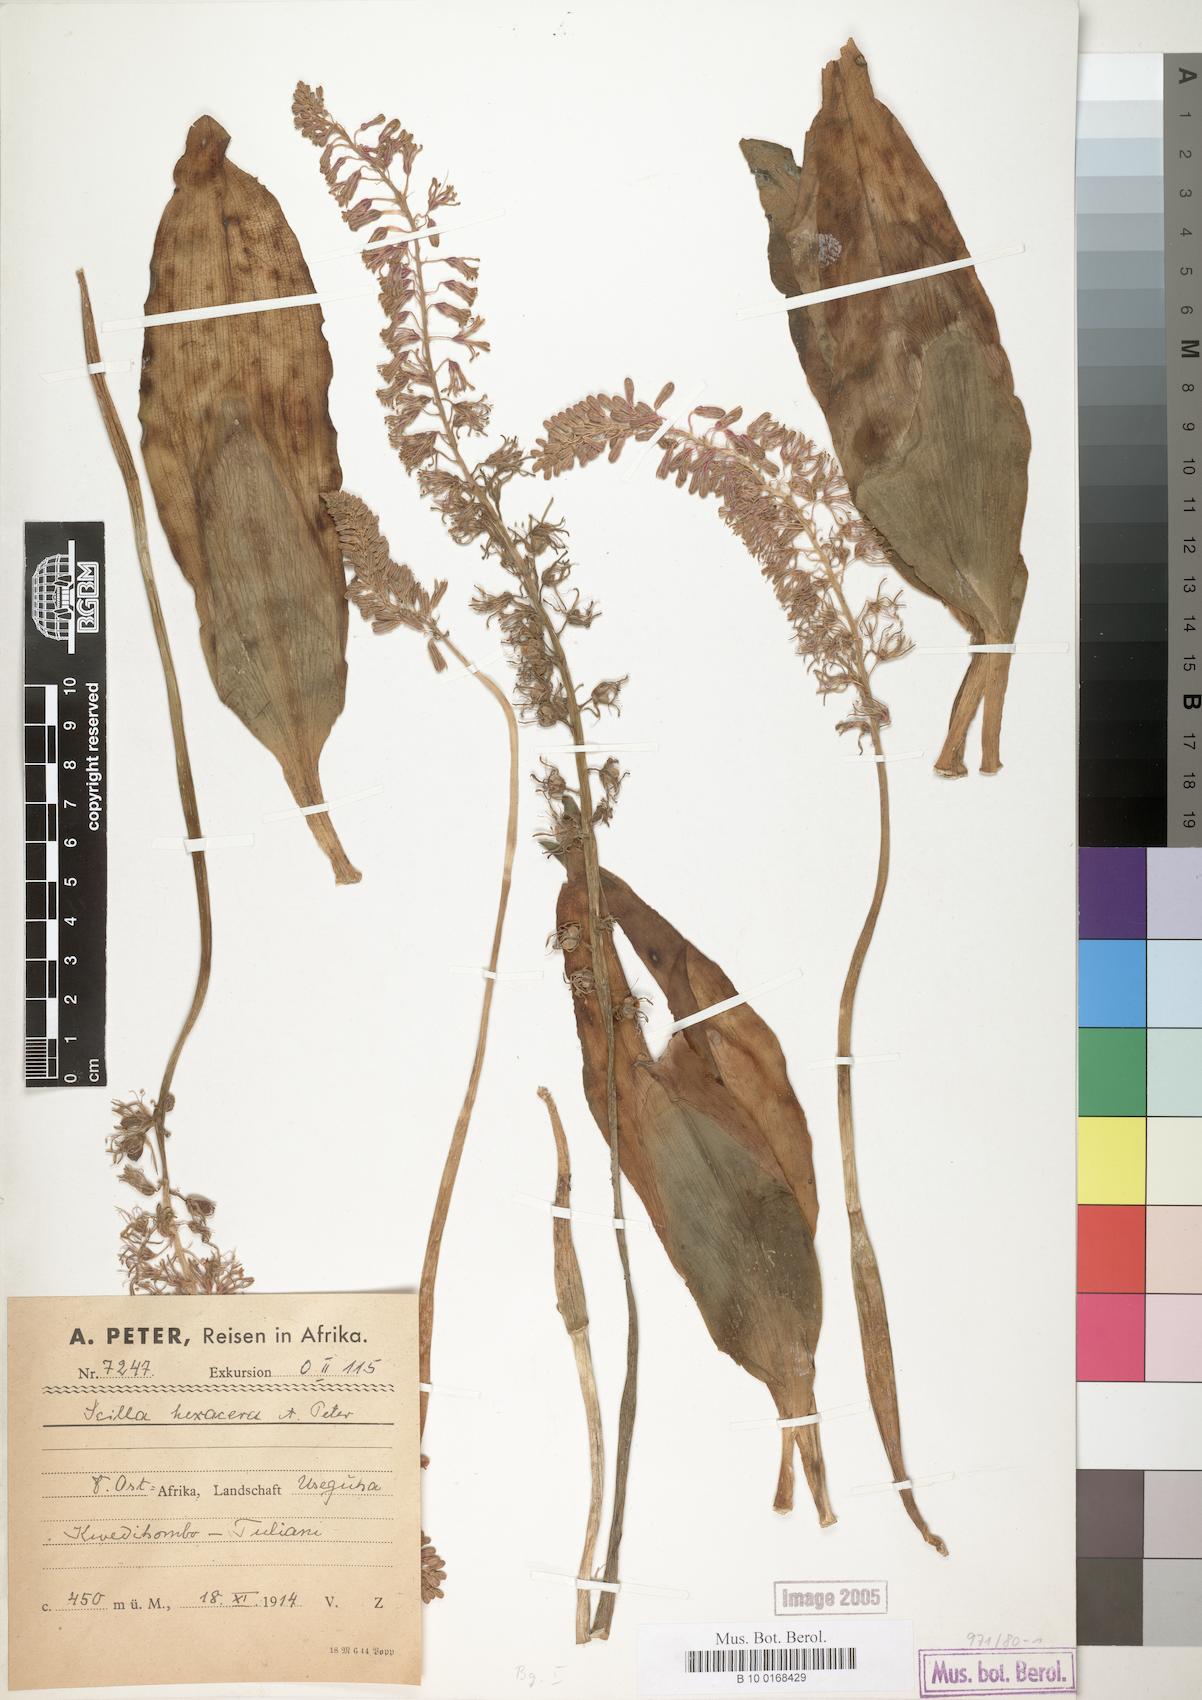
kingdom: Plantae
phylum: Tracheophyta
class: Liliopsida
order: Asparagales
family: Asparagaceae
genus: Scilla
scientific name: Scilla
